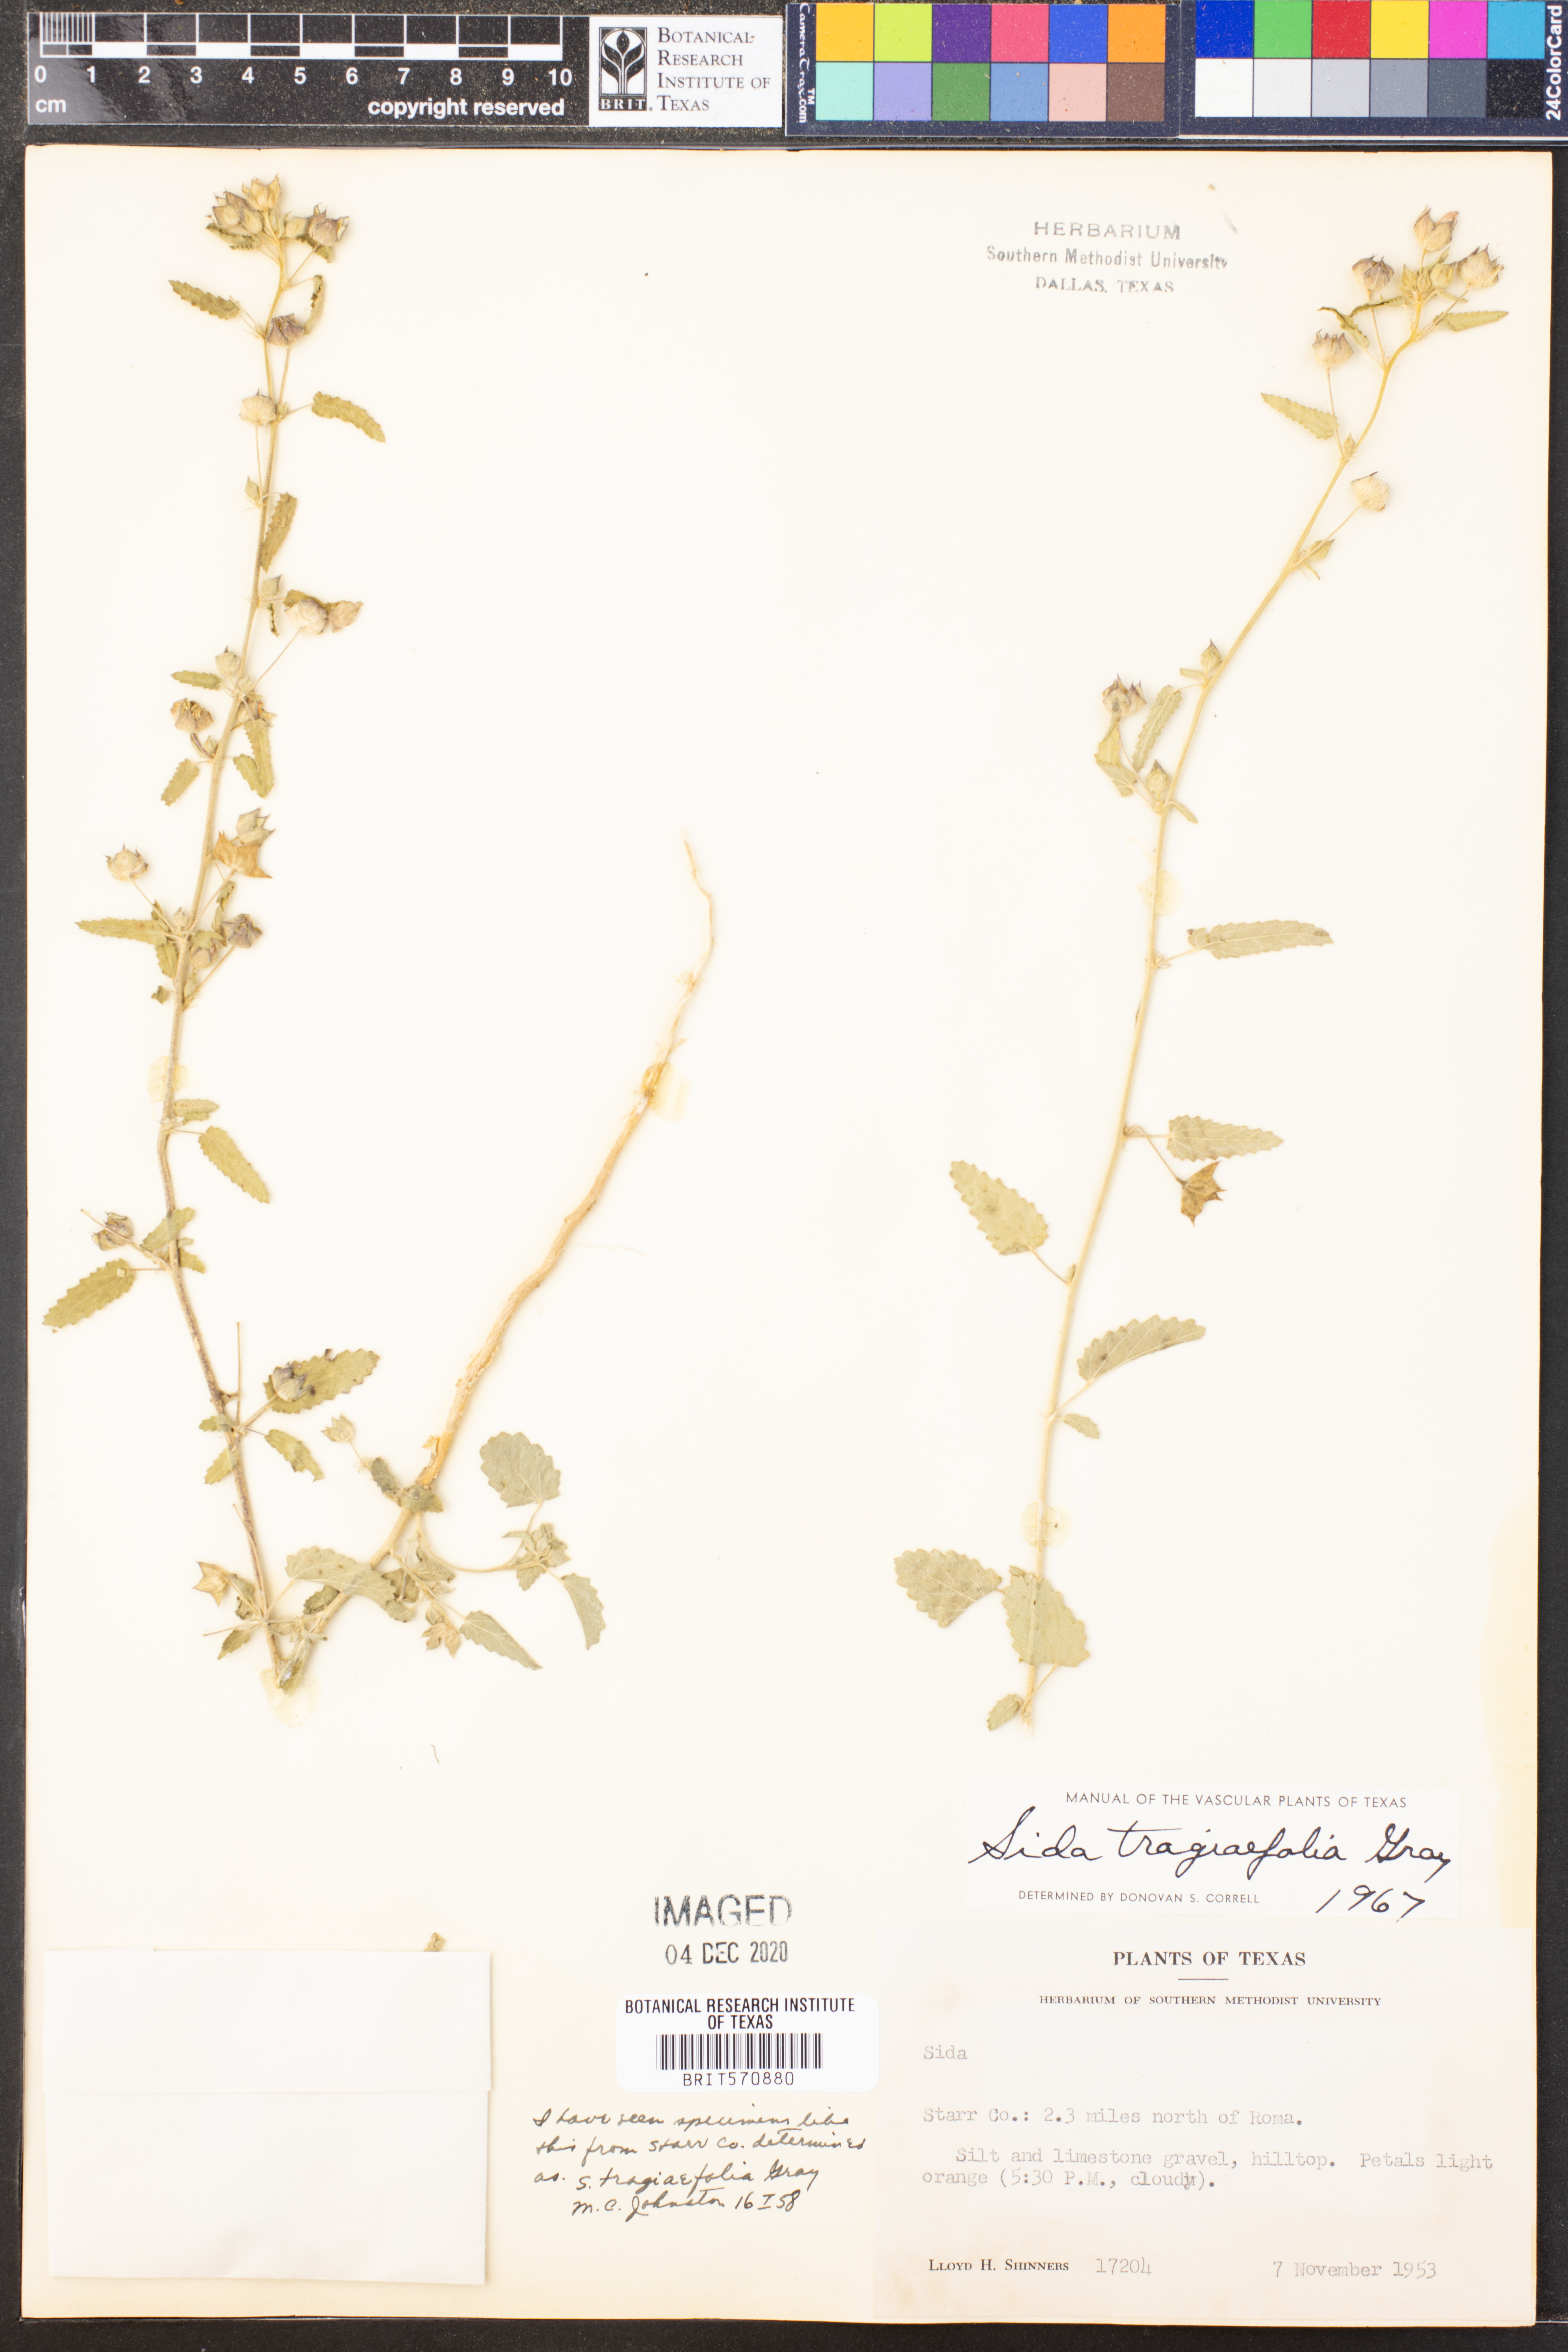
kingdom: Plantae
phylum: Tracheophyta
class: Magnoliopsida
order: Malvales
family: Malvaceae
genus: Sida
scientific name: Sida tragiifolia
